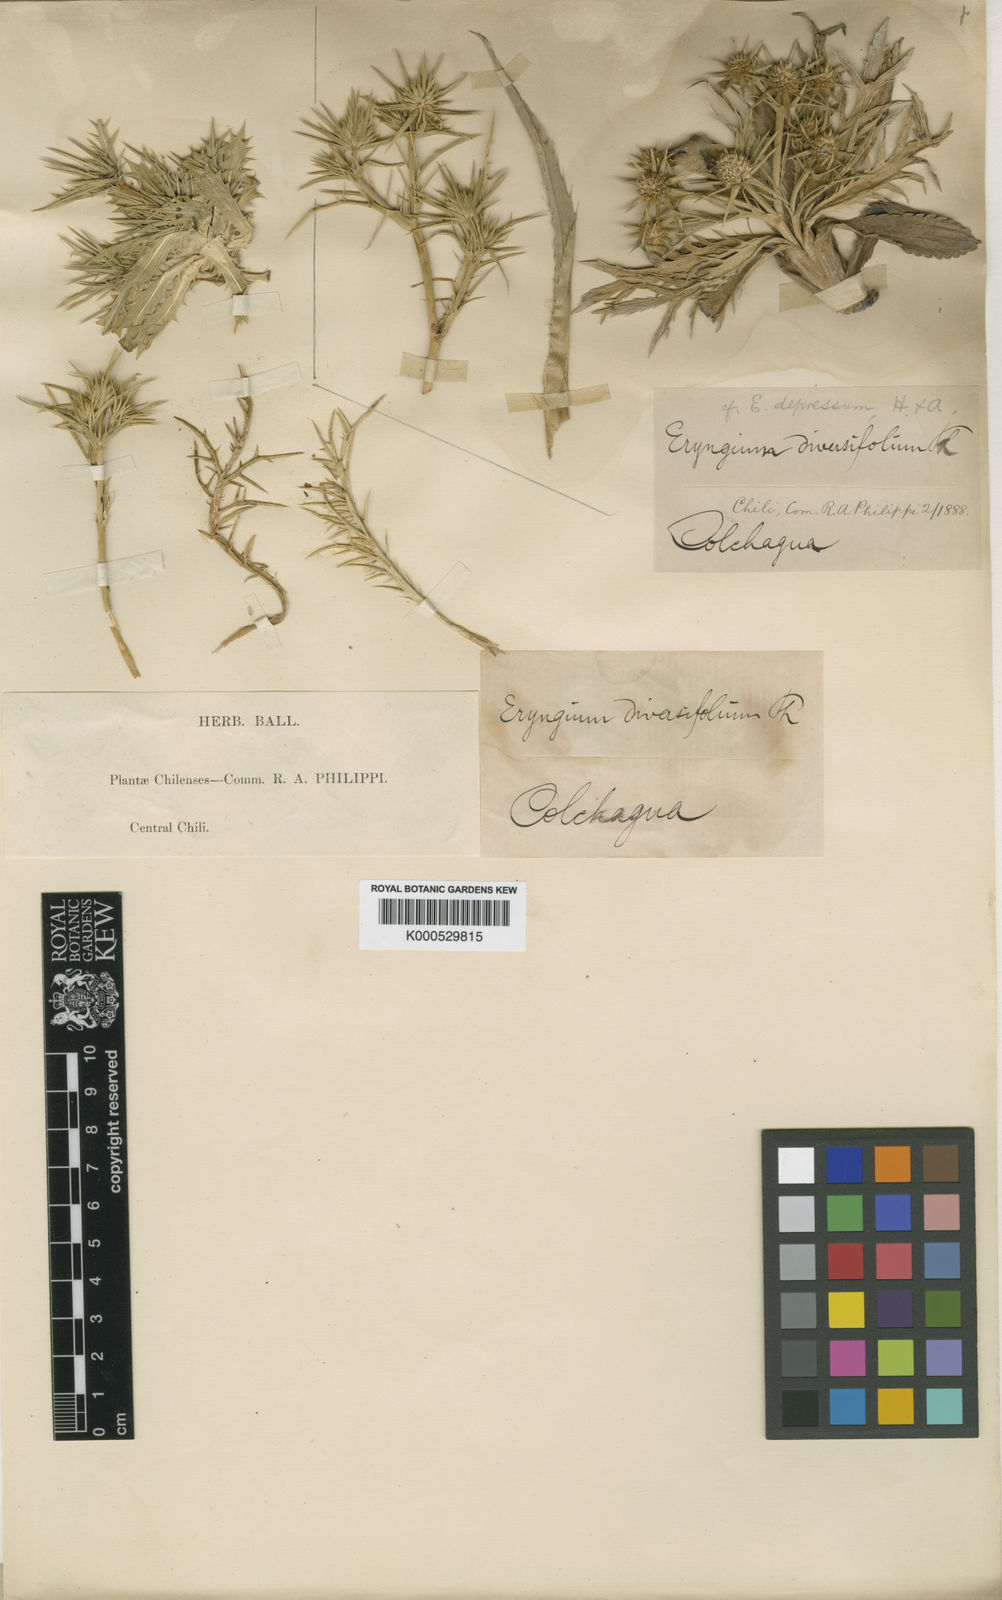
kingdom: Plantae
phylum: Tracheophyta
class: Magnoliopsida
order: Apiales
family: Apiaceae
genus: Eryngium
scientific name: Eryngium rostratum
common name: Blue eryngo
